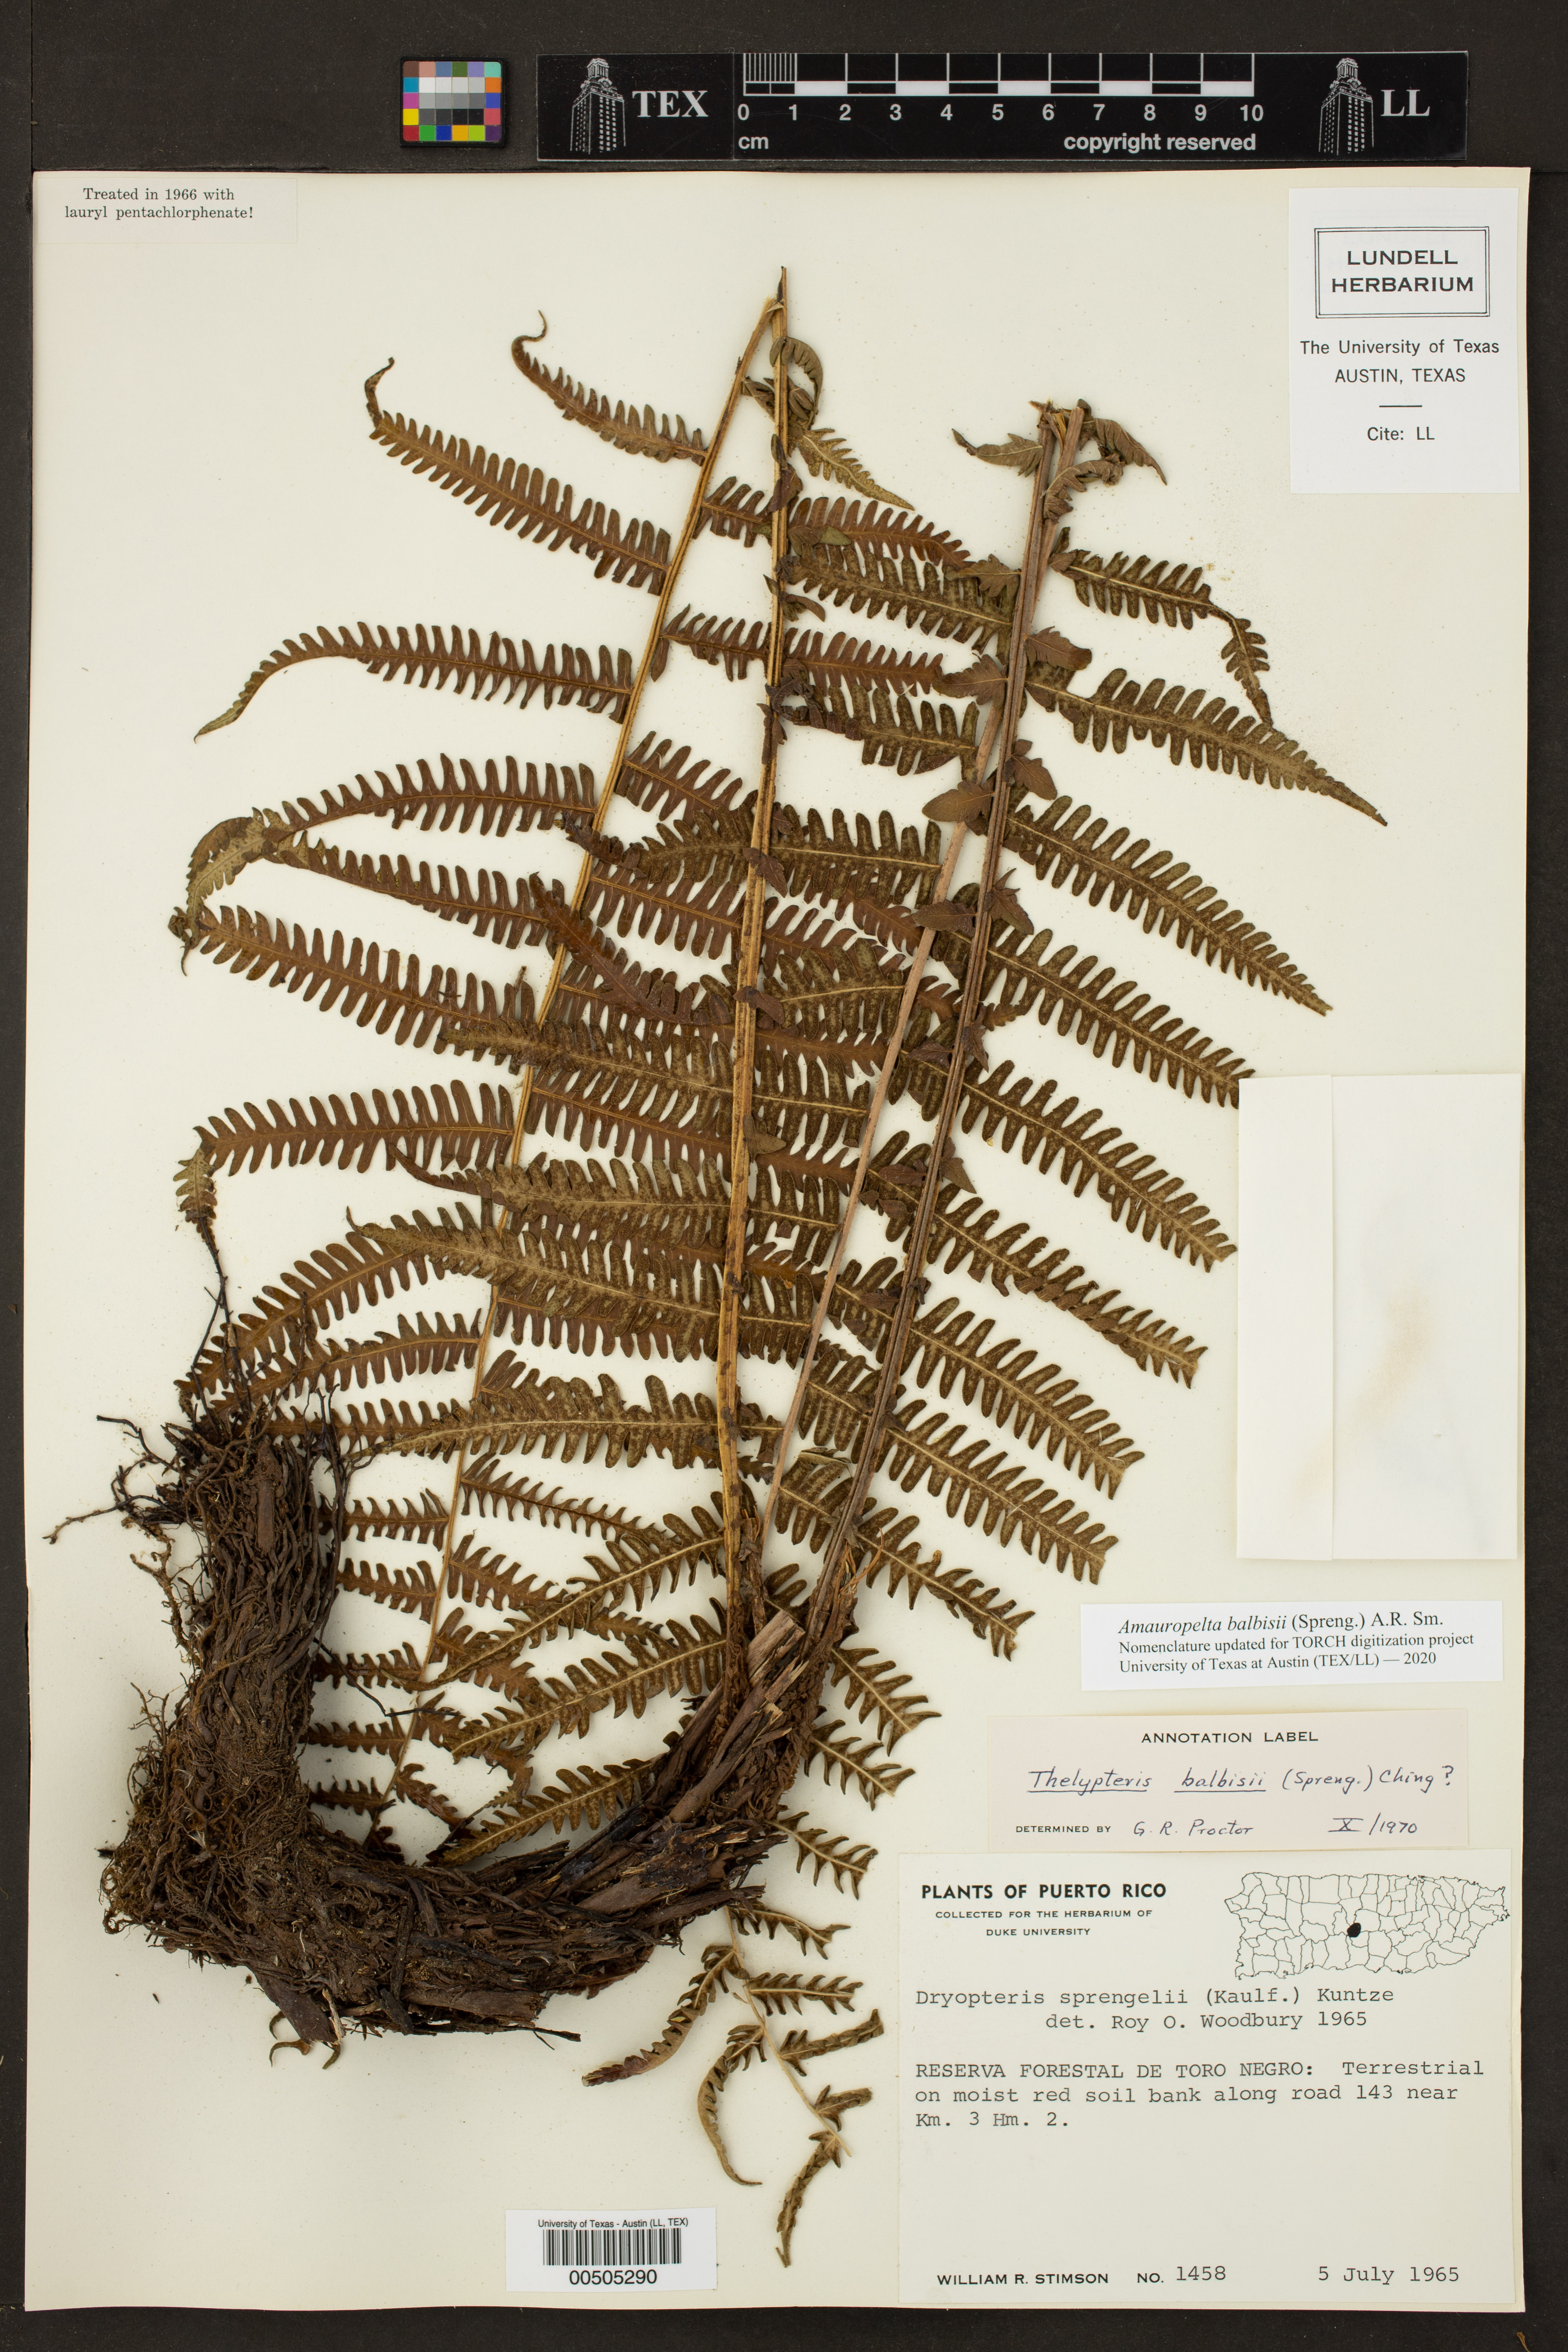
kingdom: Plantae
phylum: Tracheophyta
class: Polypodiopsida
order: Polypodiales
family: Thelypteridaceae
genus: Amauropelta
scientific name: Amauropelta balbisii
